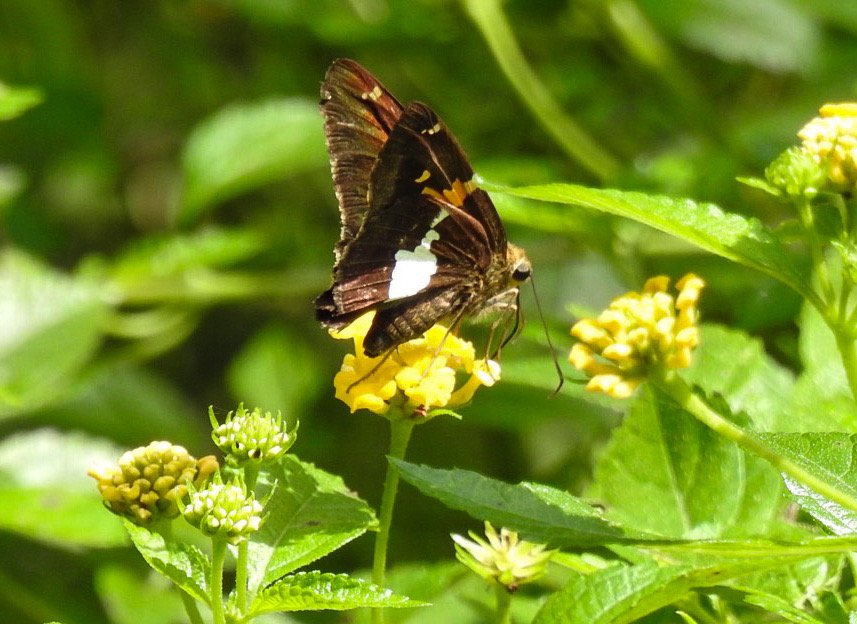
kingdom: Animalia
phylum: Arthropoda
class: Insecta
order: Lepidoptera
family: Hesperiidae
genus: Epargyreus
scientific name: Epargyreus clarus
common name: Silver-spotted Skipper
